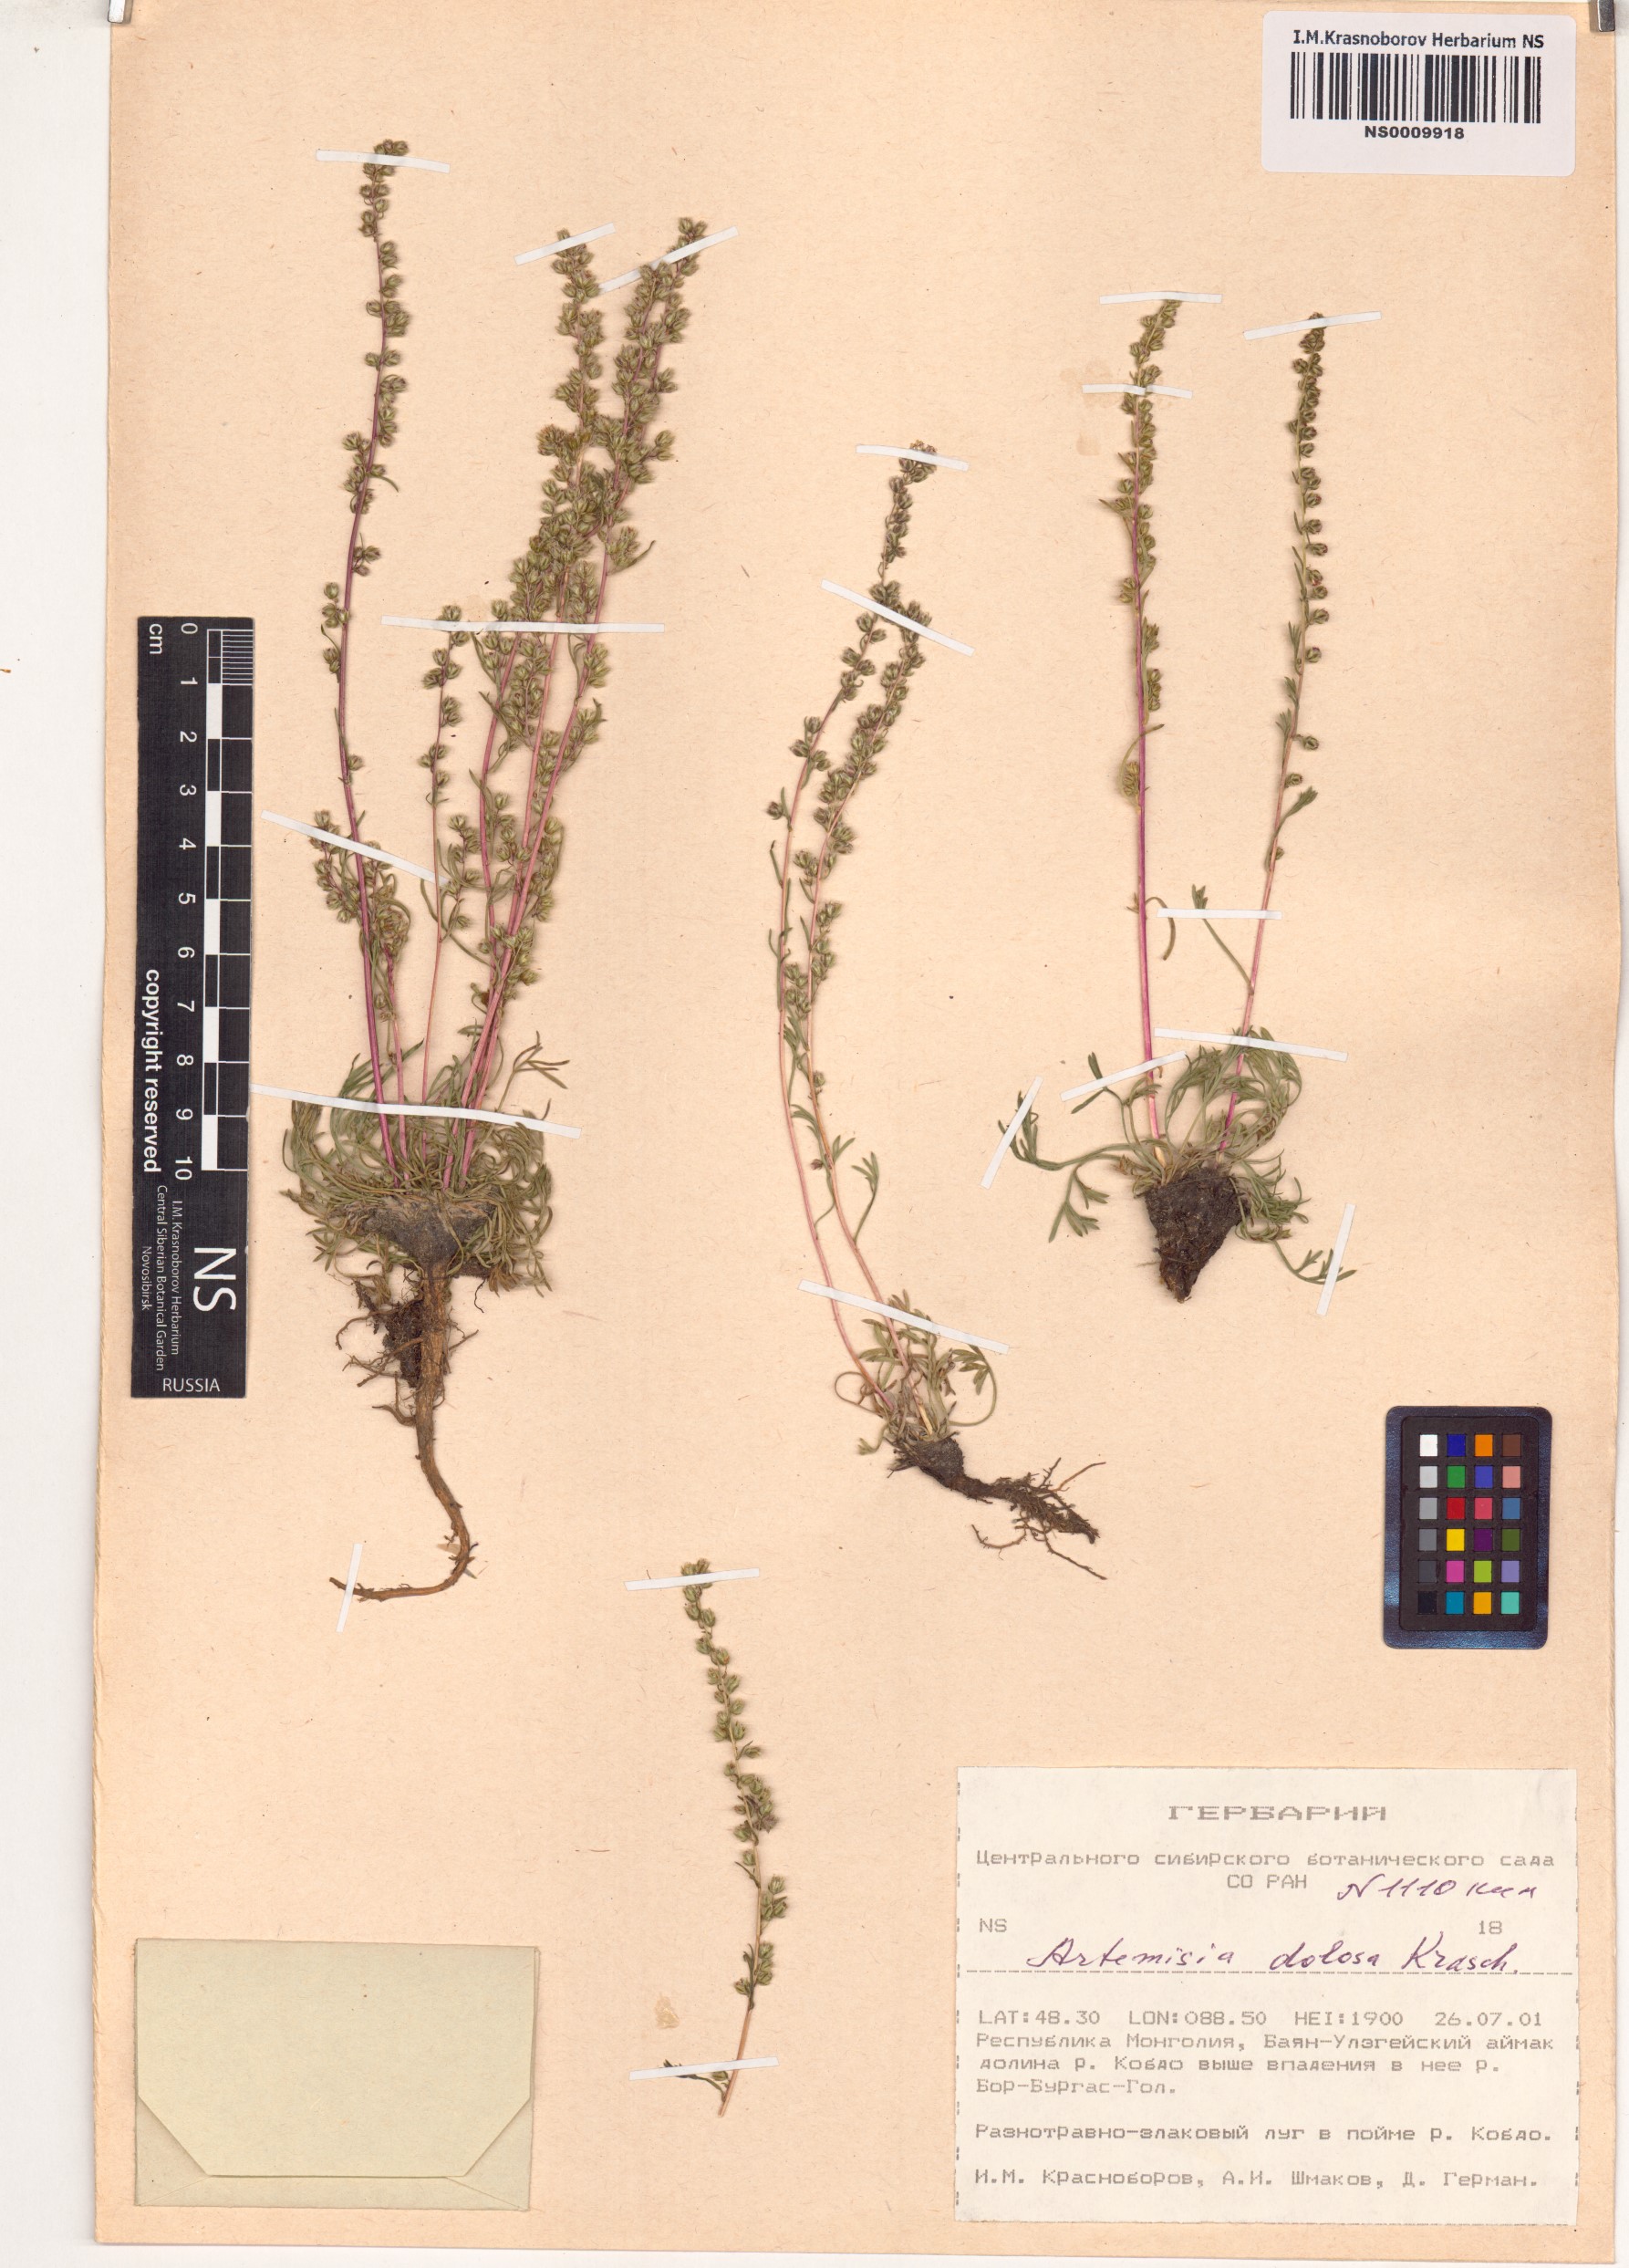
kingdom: Plantae
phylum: Tracheophyta
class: Magnoliopsida
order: Asterales
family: Asteraceae
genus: Artemisia
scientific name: Artemisia dolosa
